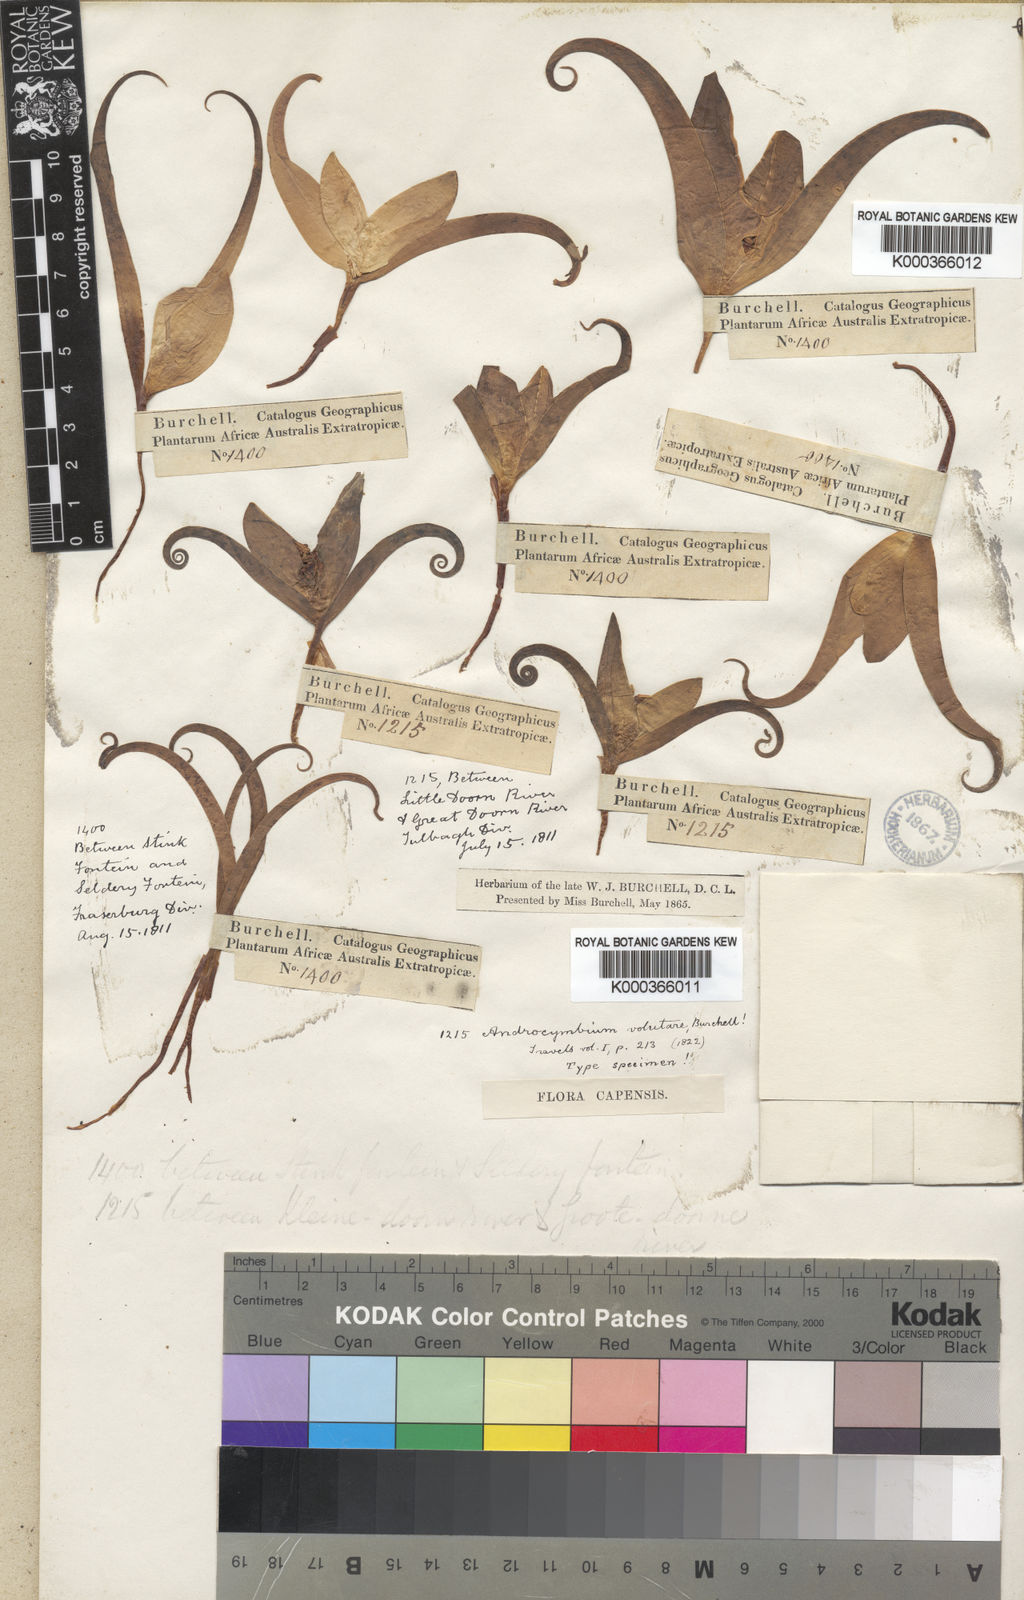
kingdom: Plantae
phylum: Tracheophyta
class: Liliopsida
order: Liliales
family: Colchicaceae
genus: Colchicum
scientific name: Colchicum volutare
